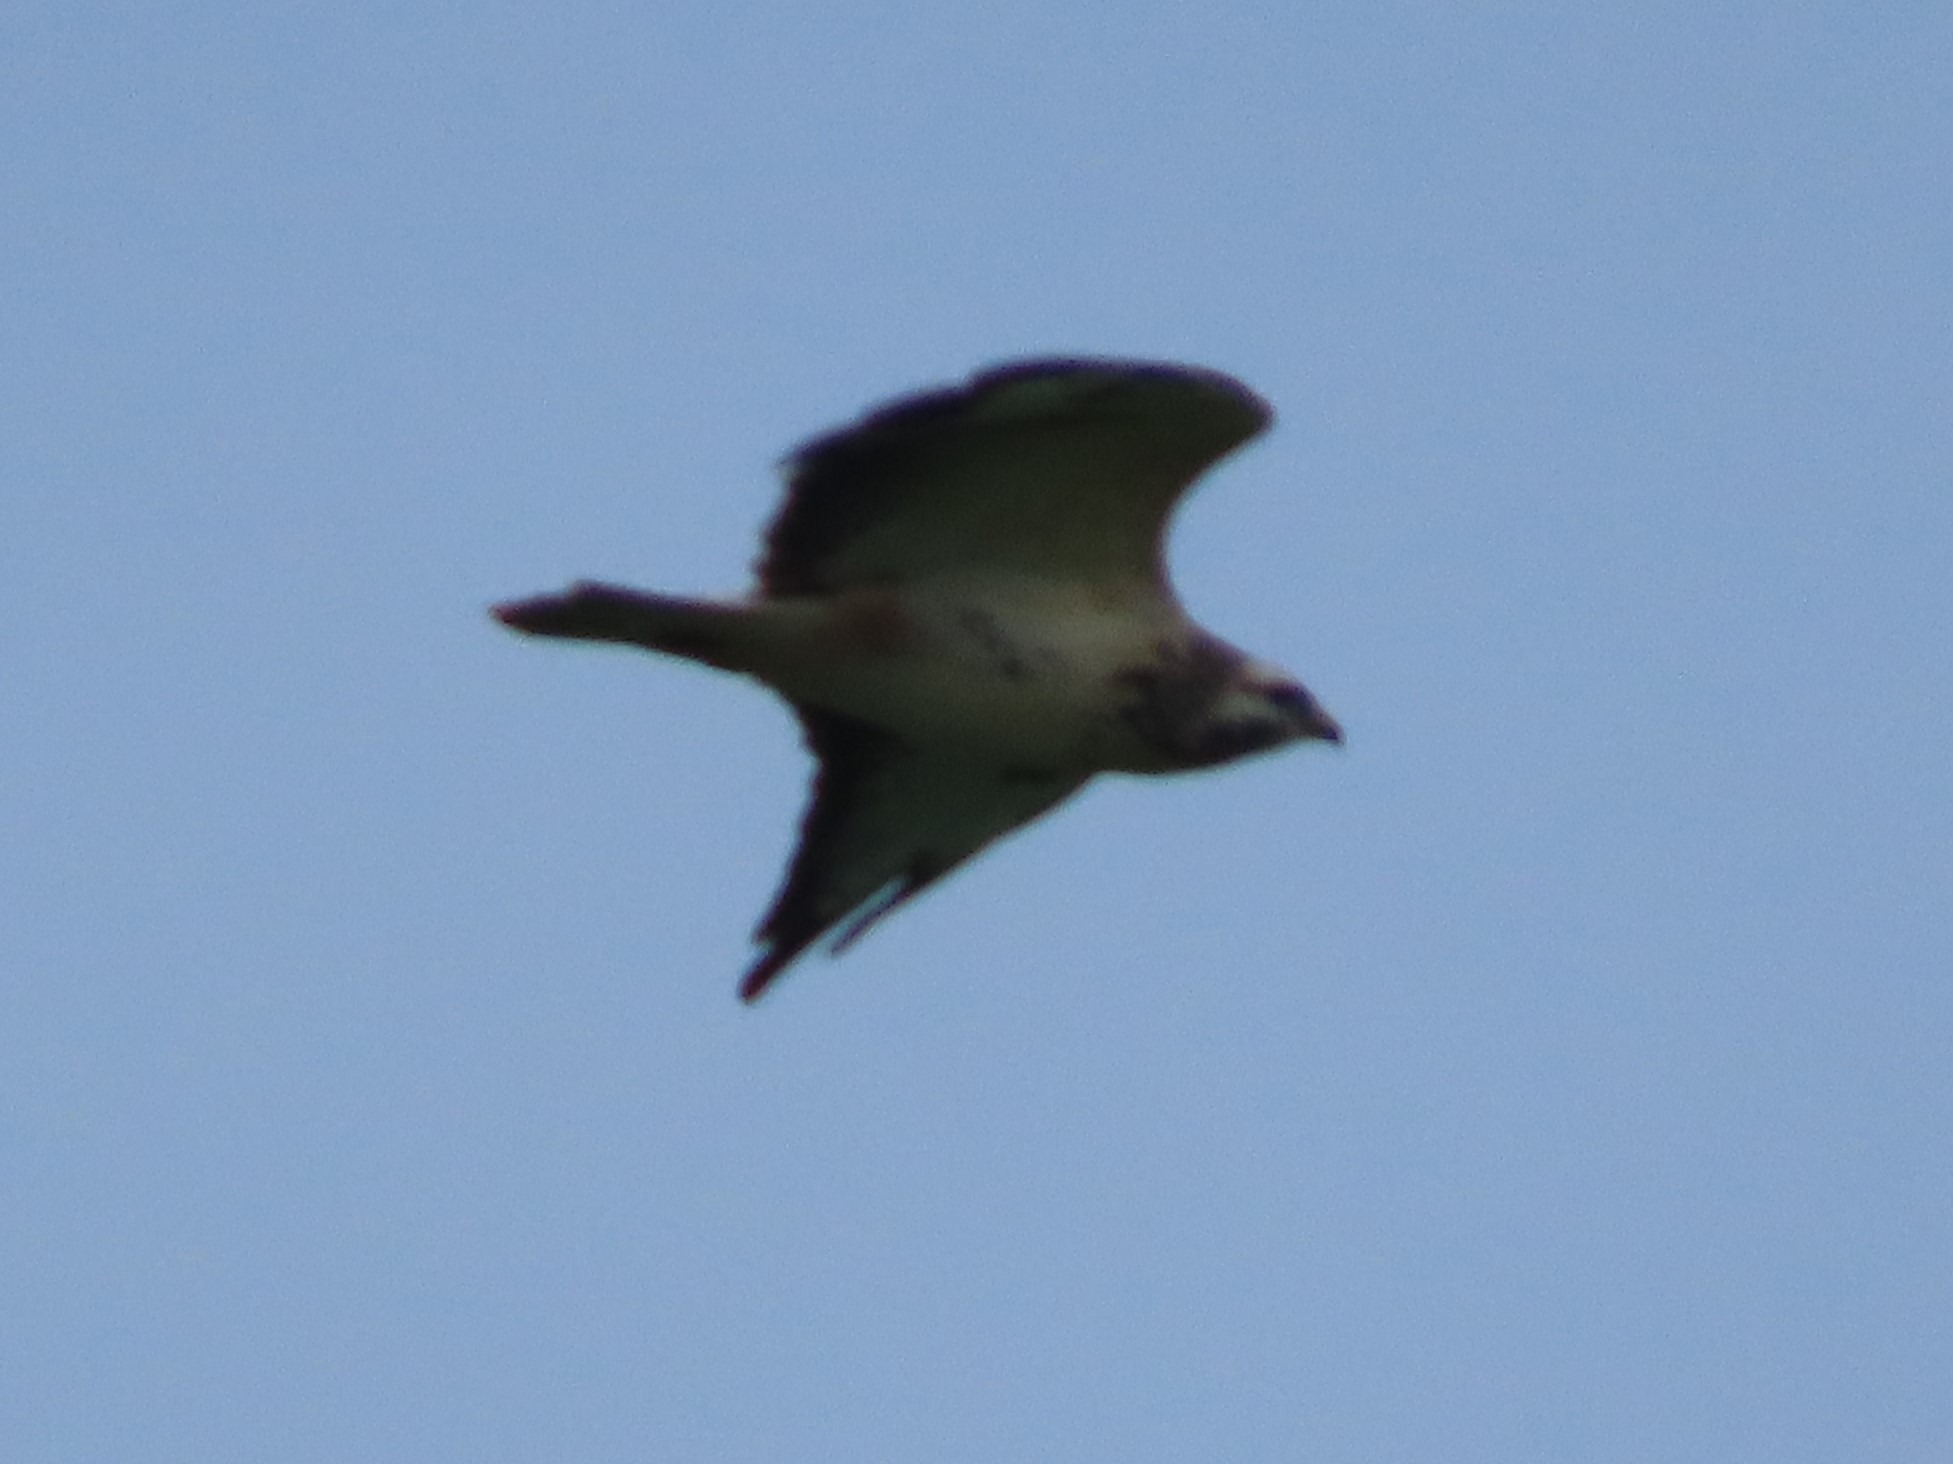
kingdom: Animalia
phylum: Chordata
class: Aves
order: Accipitriformes
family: Accipitridae
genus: Buteo
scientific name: Buteo buteo
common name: Musvåge
